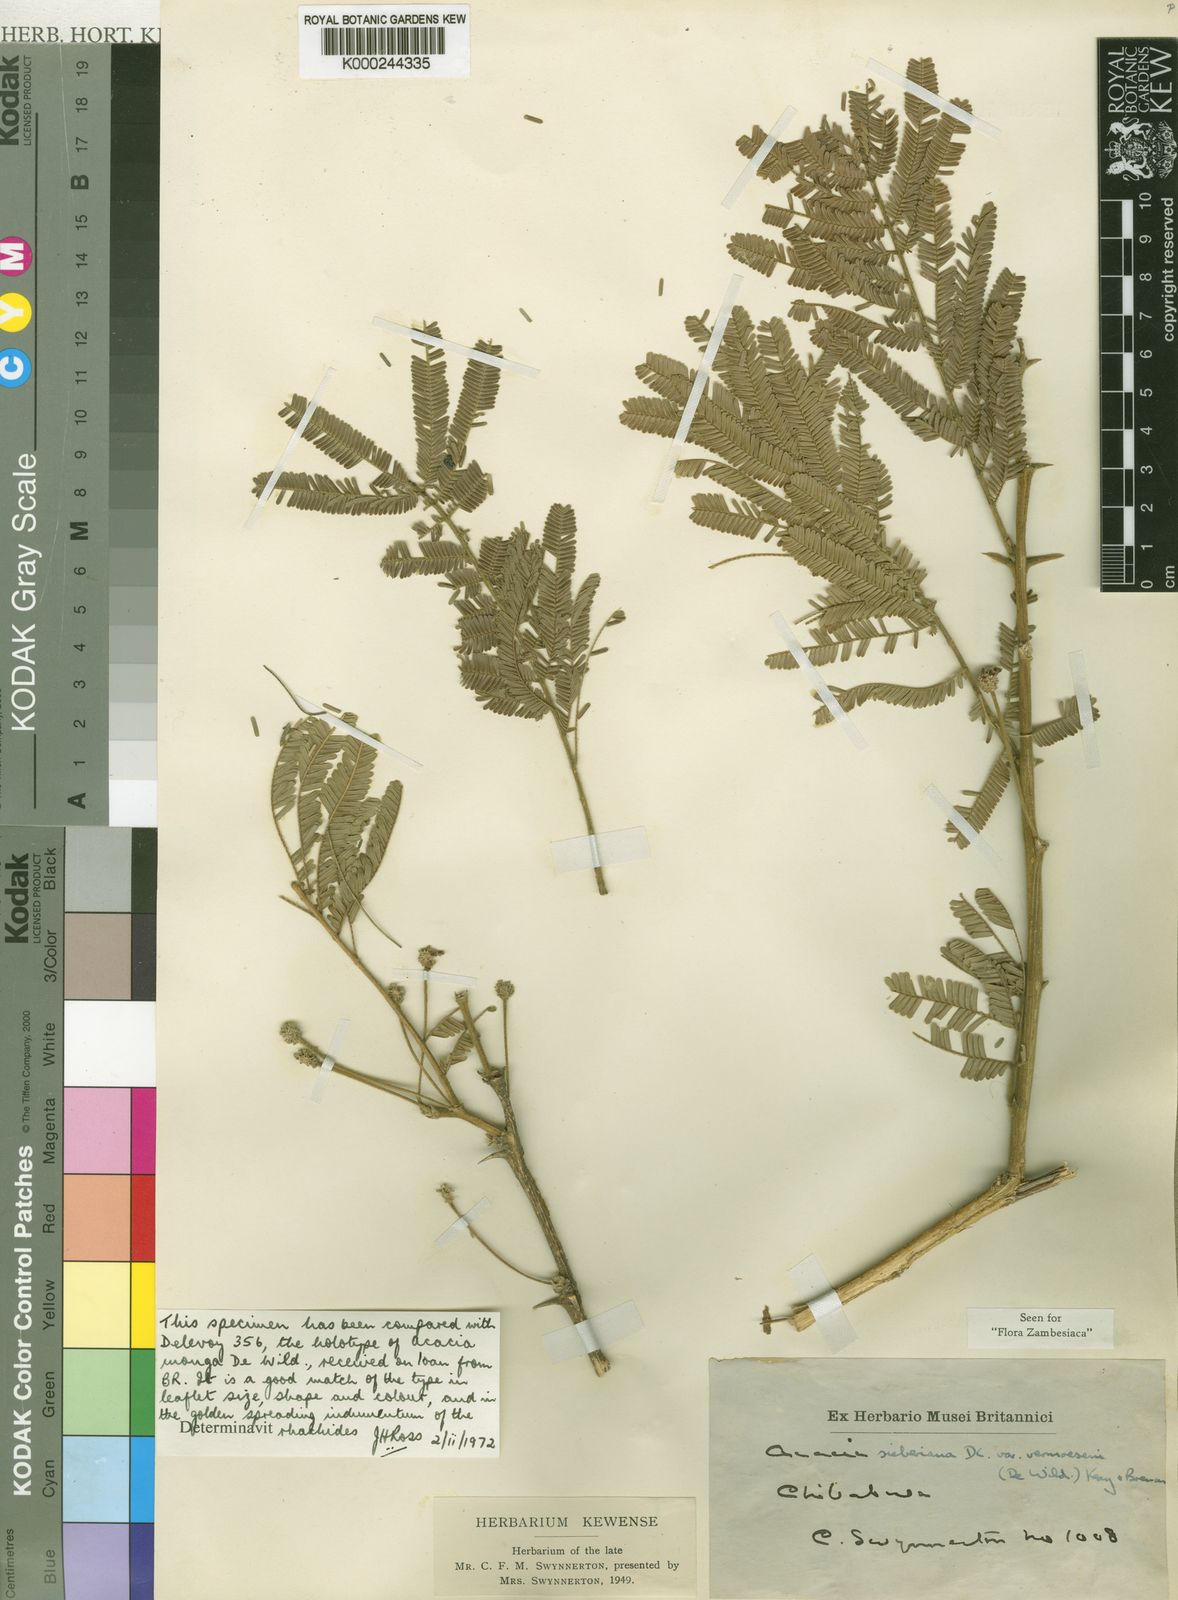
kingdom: Plantae
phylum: Tracheophyta
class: Magnoliopsida
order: Fabales
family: Fabaceae
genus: Vachellia
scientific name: Vachellia sieberiana
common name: Flat-topped thorn
